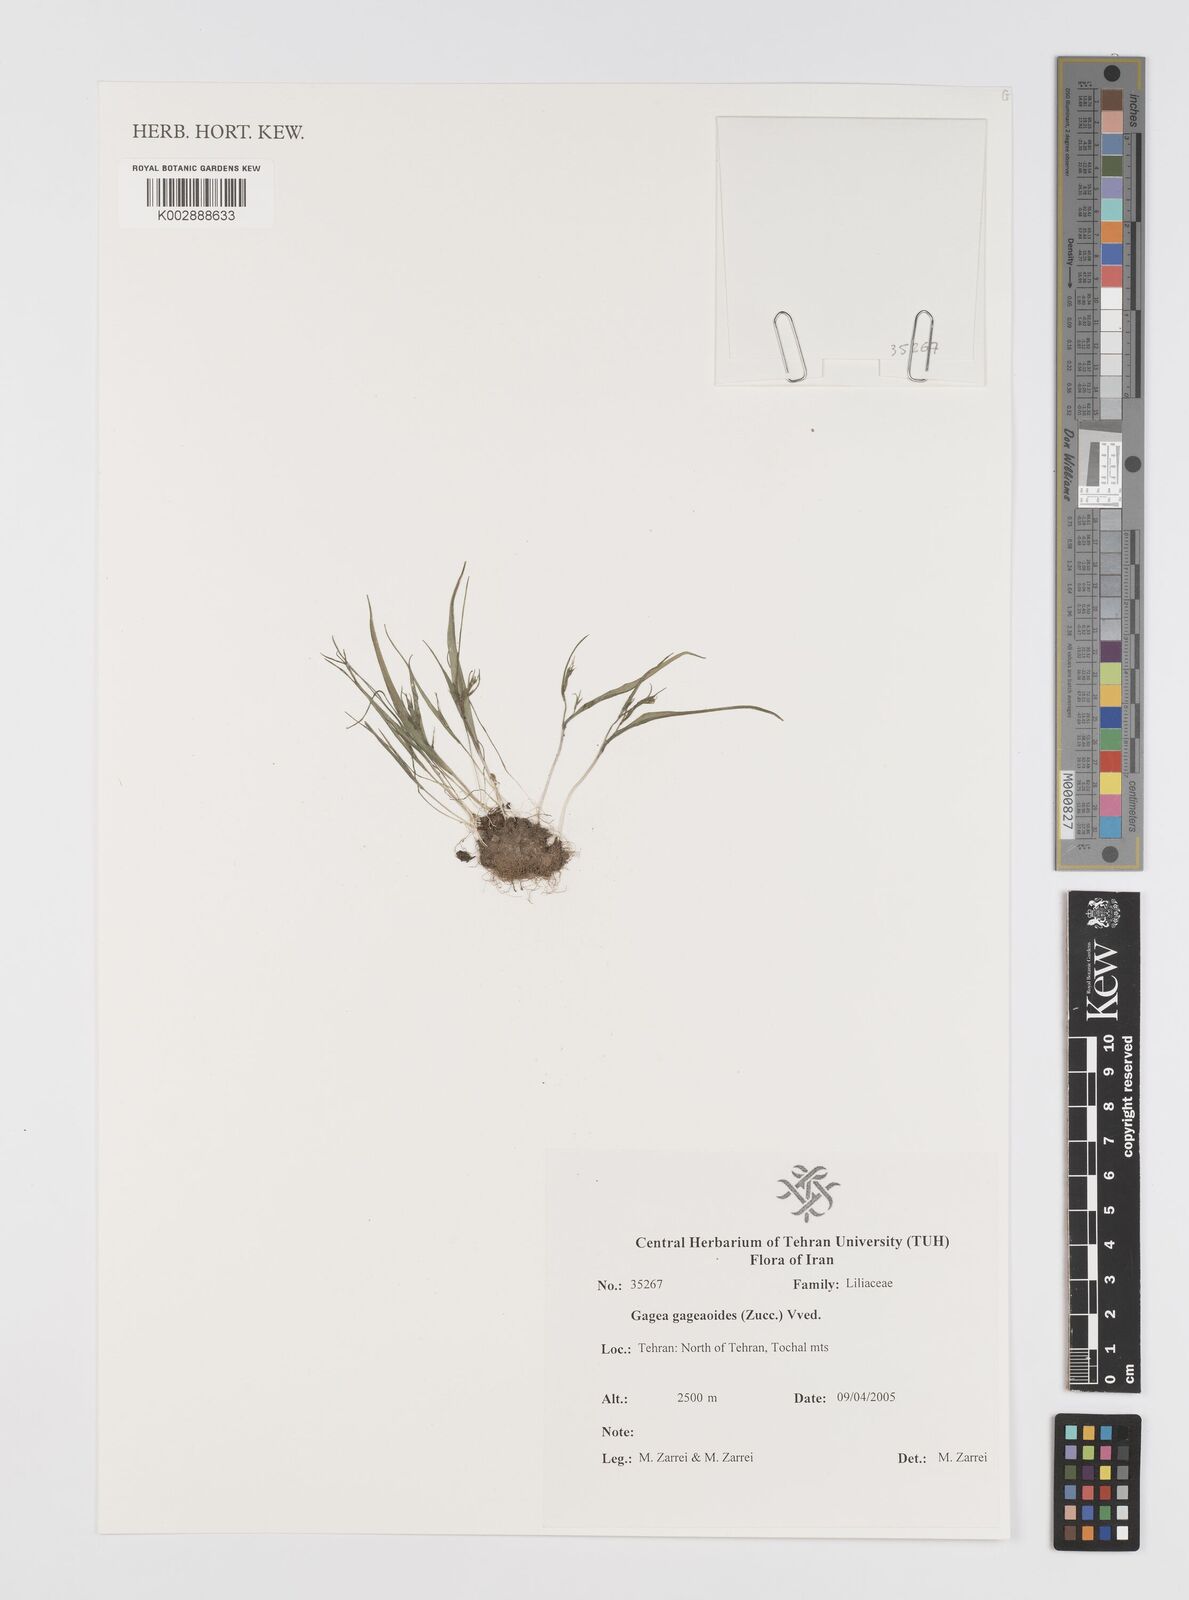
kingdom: Plantae
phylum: Tracheophyta
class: Liliopsida
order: Liliales
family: Liliaceae
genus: Gagea
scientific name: Gagea gageoides
